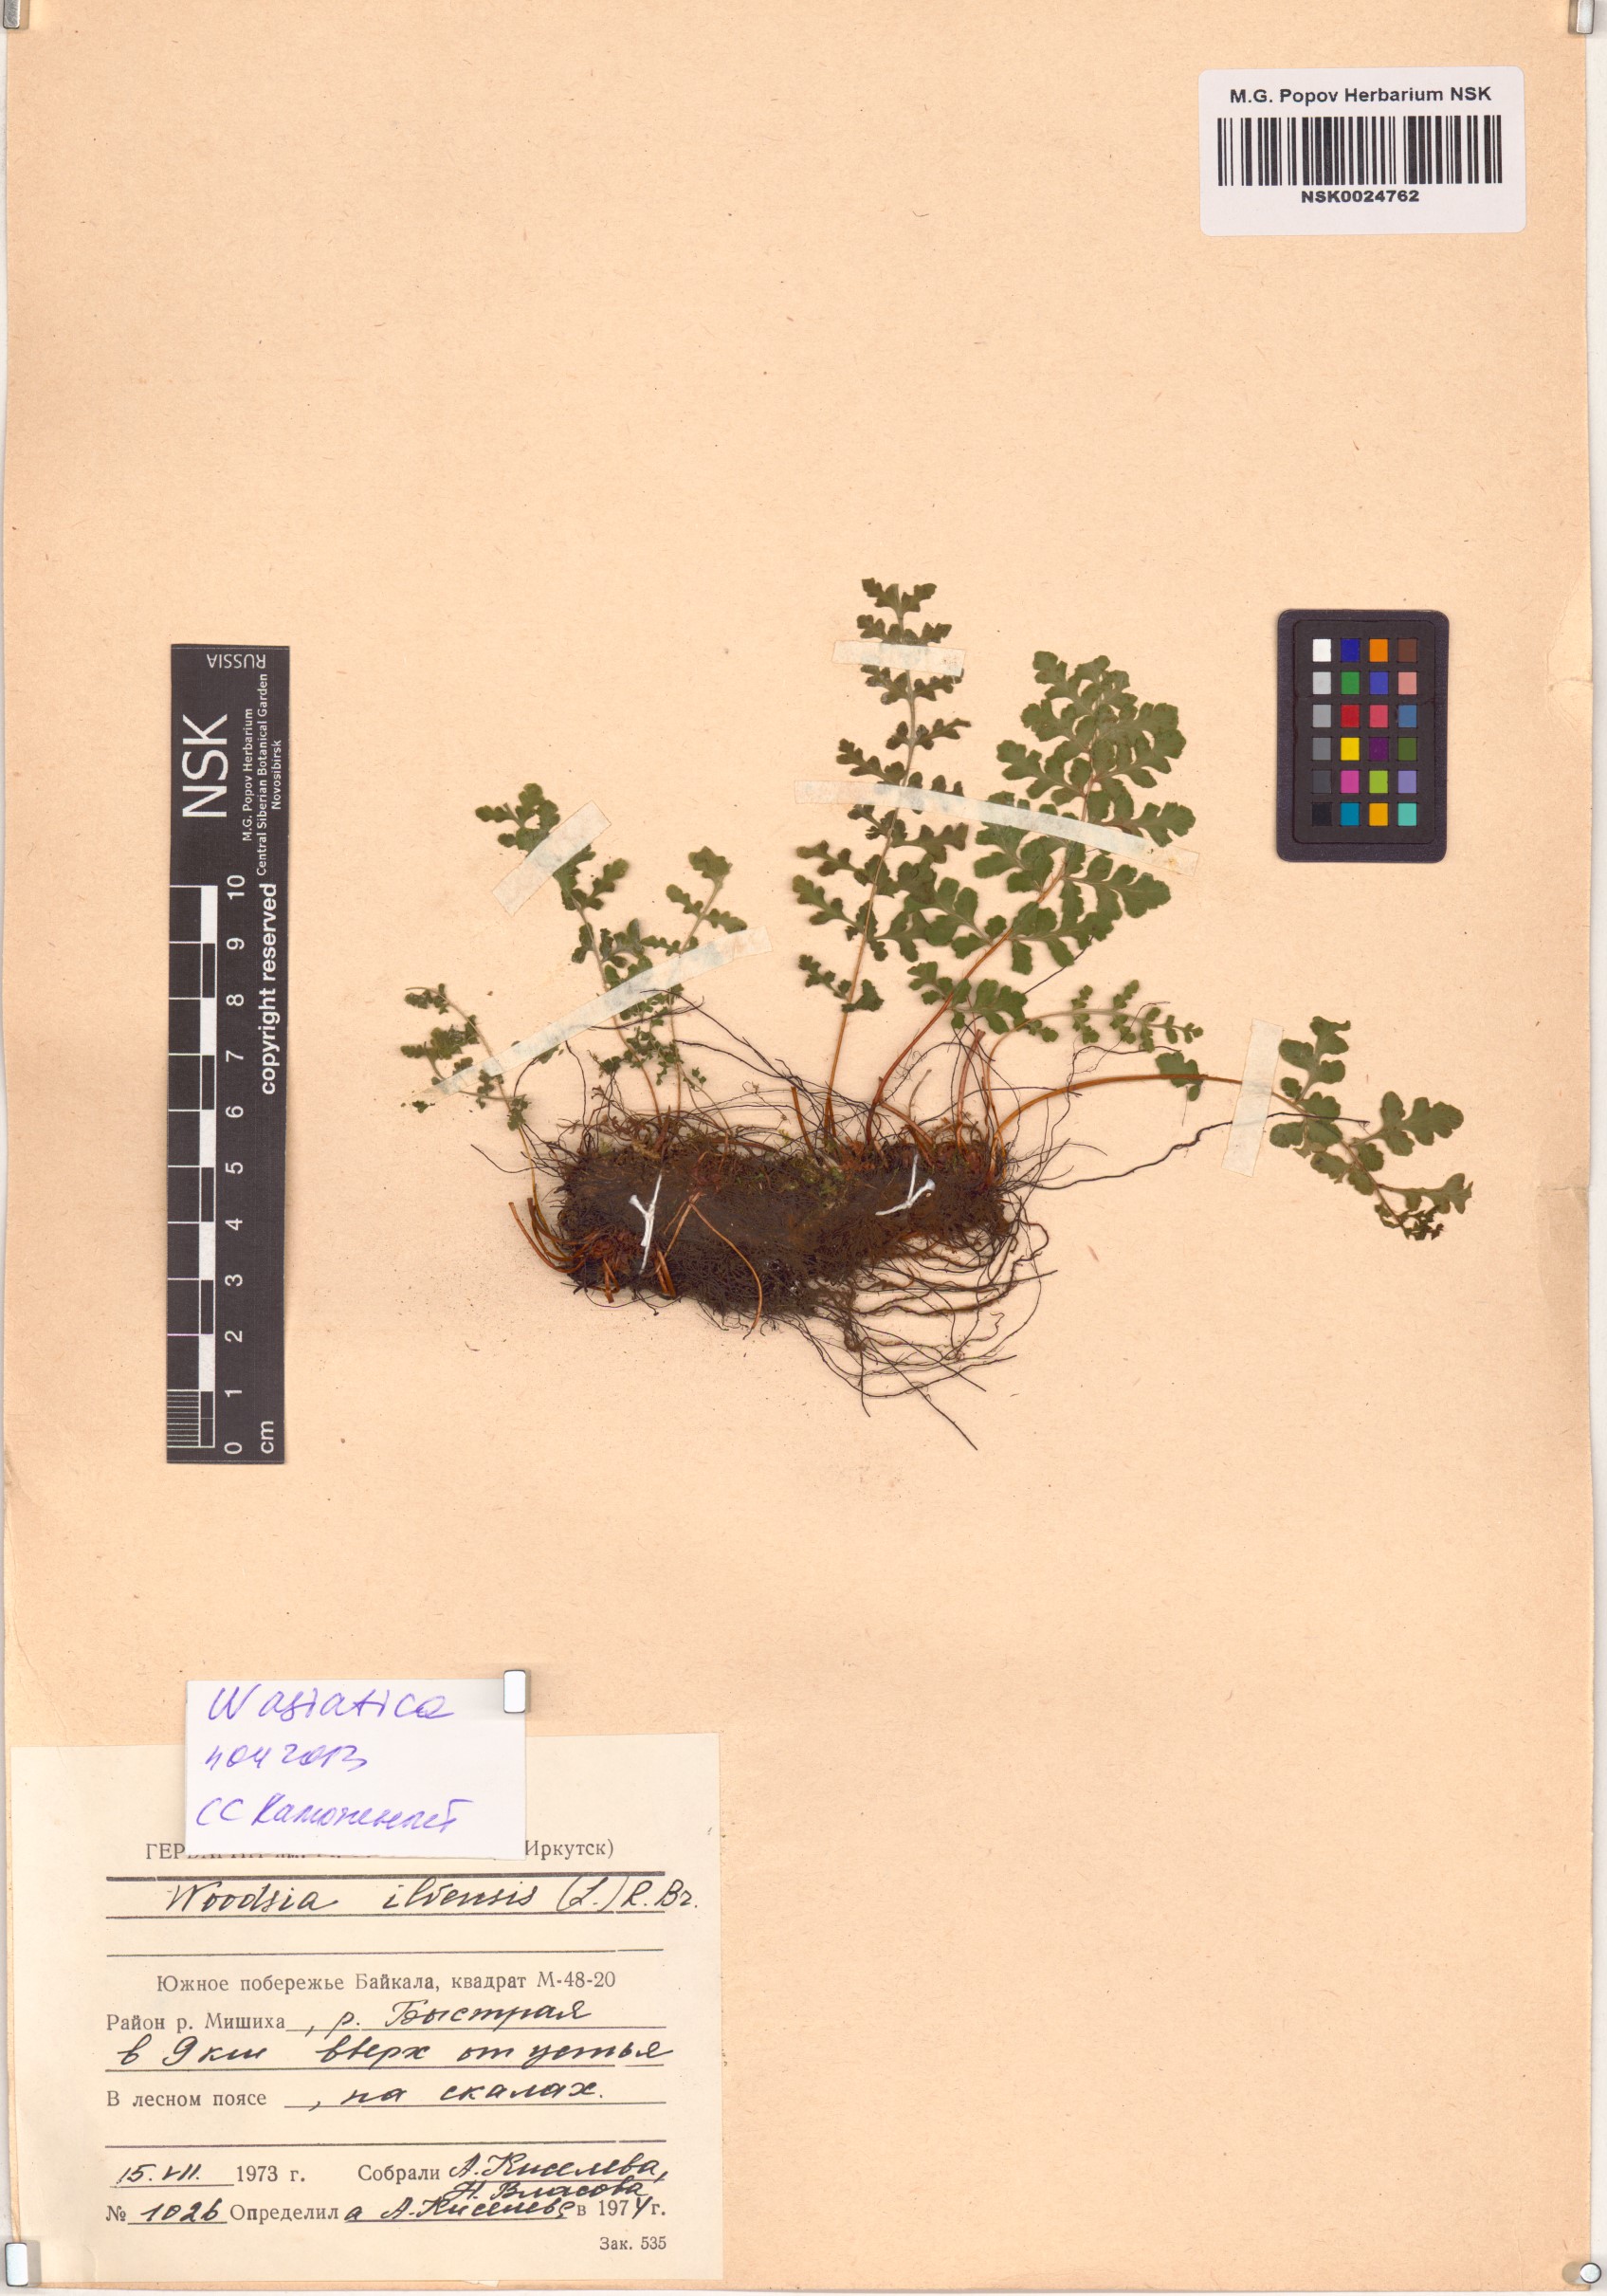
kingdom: Plantae
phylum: Tracheophyta
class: Polypodiopsida
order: Polypodiales
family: Woodsiaceae
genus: Woodsia
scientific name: Woodsia asiatica
